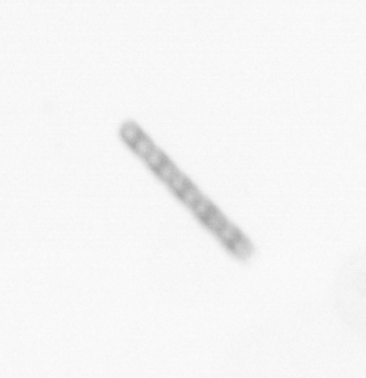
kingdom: Chromista
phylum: Ochrophyta
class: Bacillariophyceae
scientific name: Bacillariophyceae
